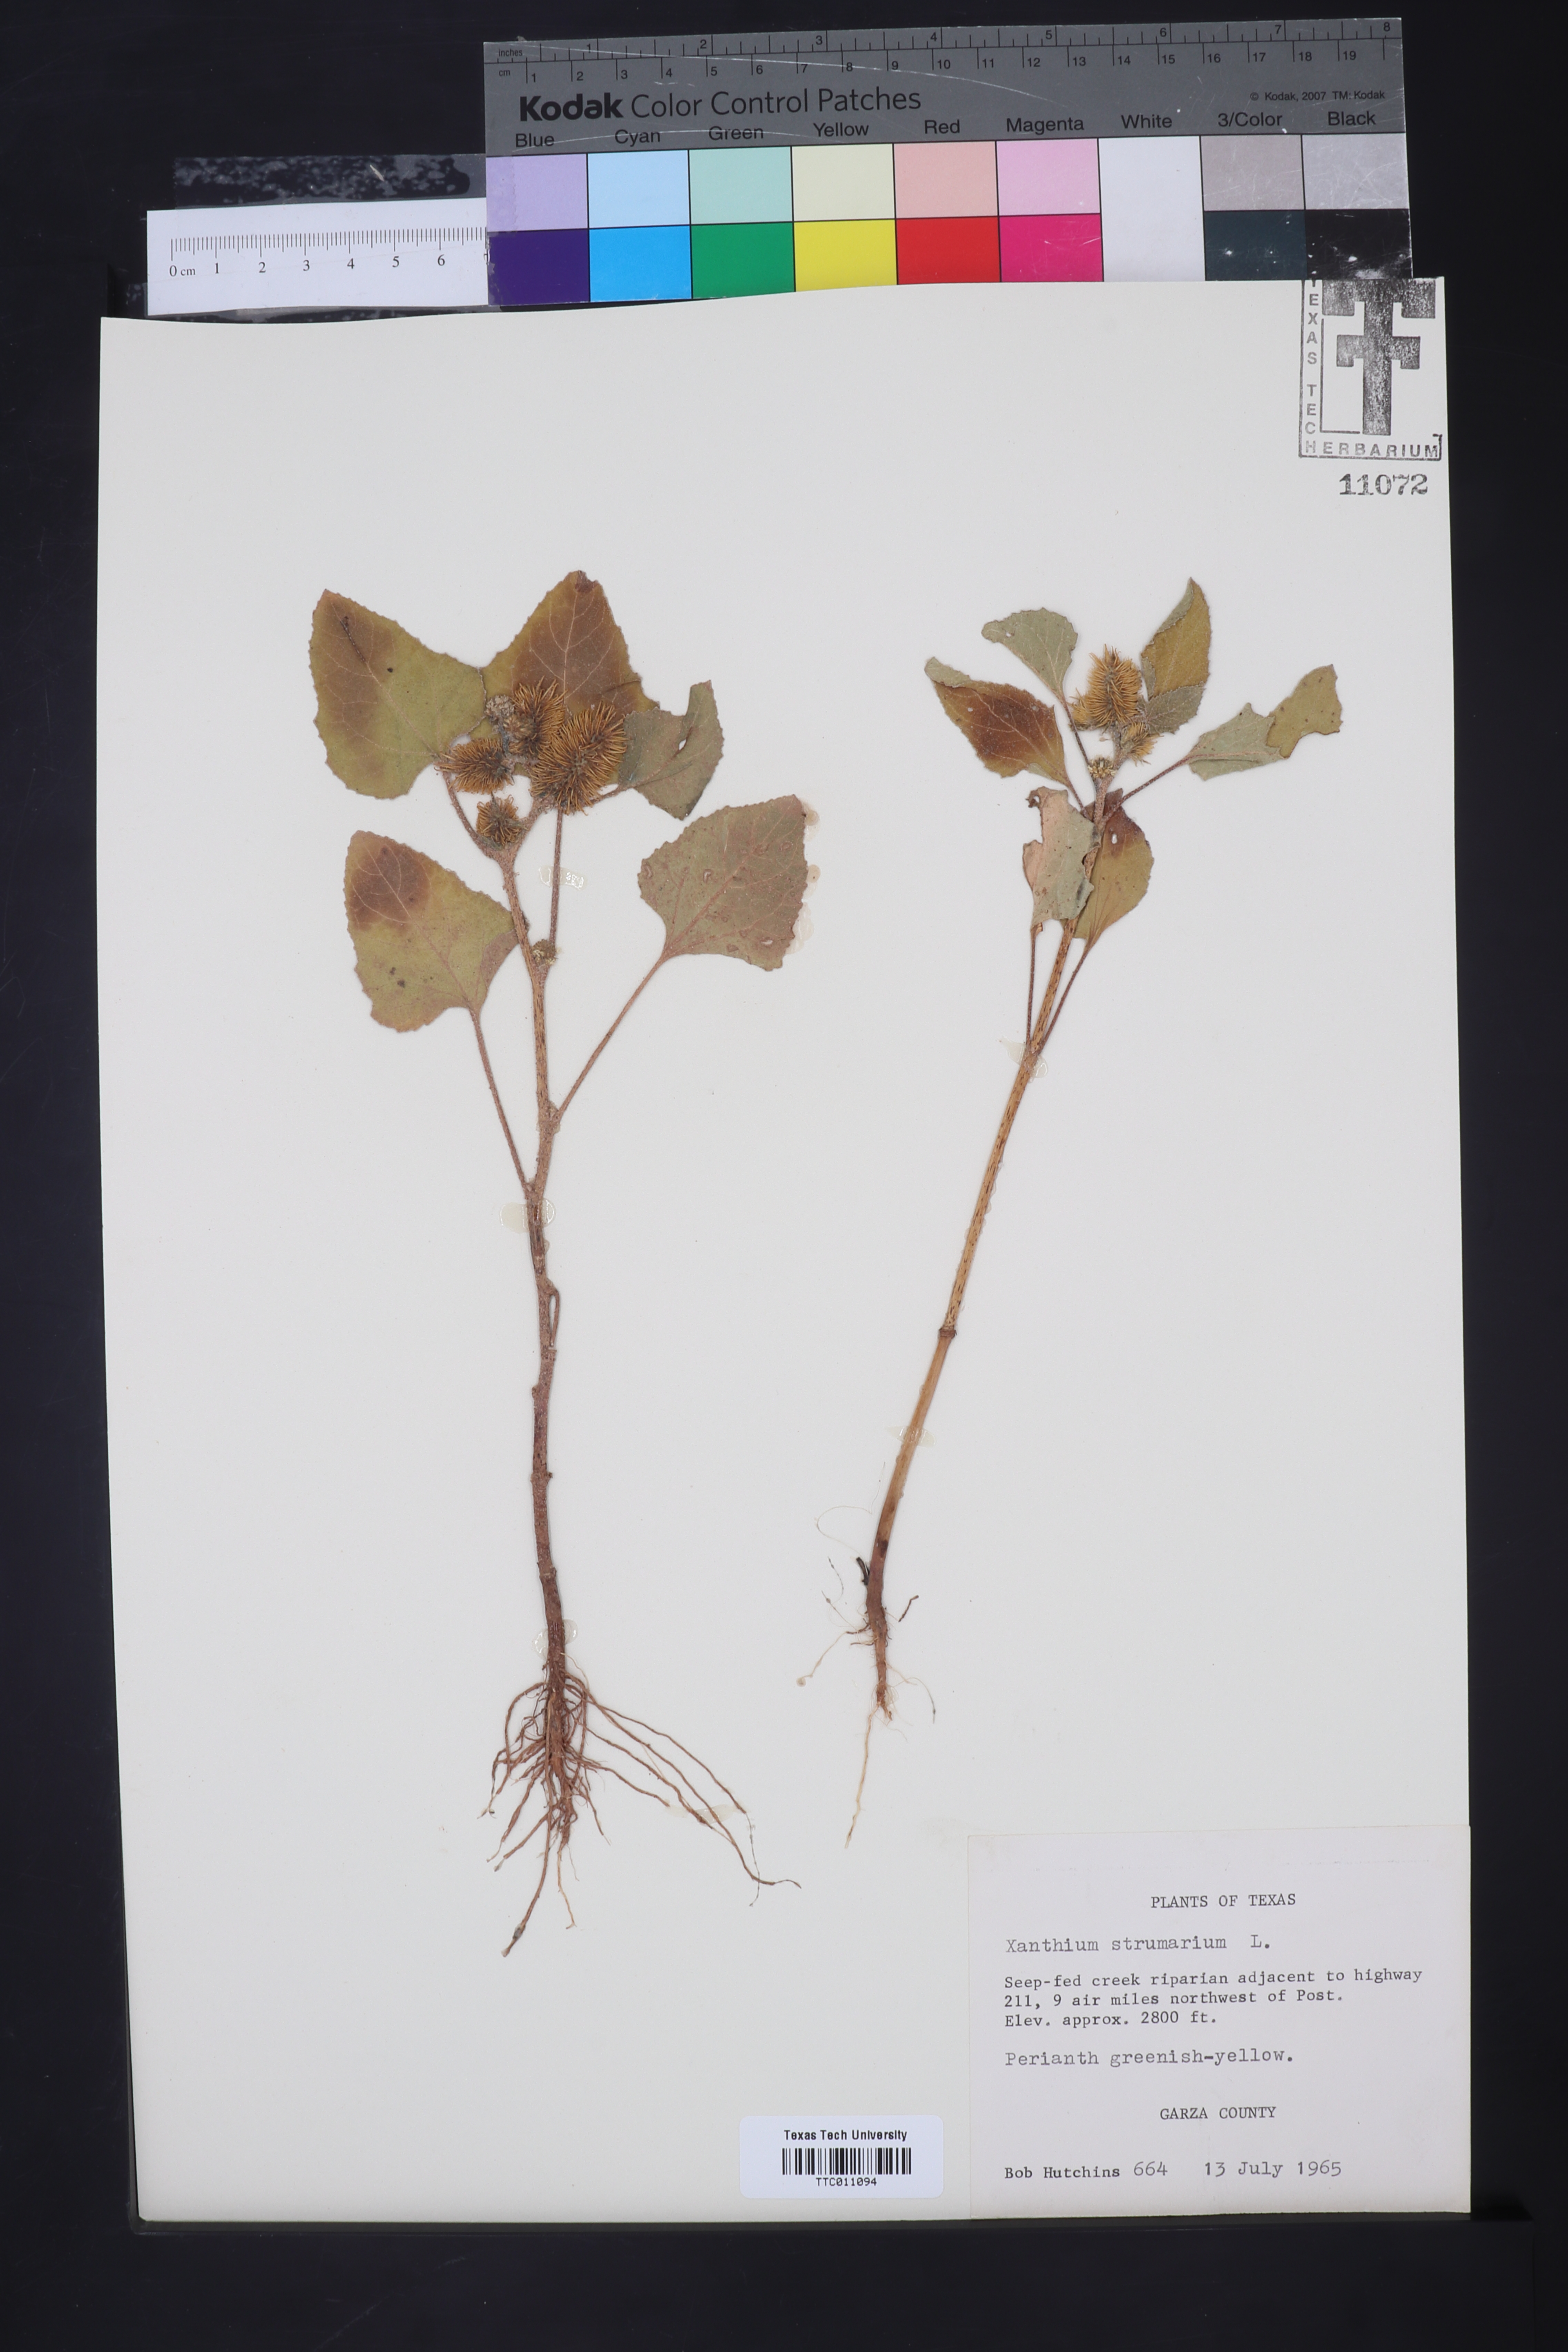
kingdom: Plantae
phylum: Tracheophyta
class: Magnoliopsida
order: Asterales
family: Asteraceae
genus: Xanthium
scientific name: Xanthium strumarium
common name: Rough cocklebur
